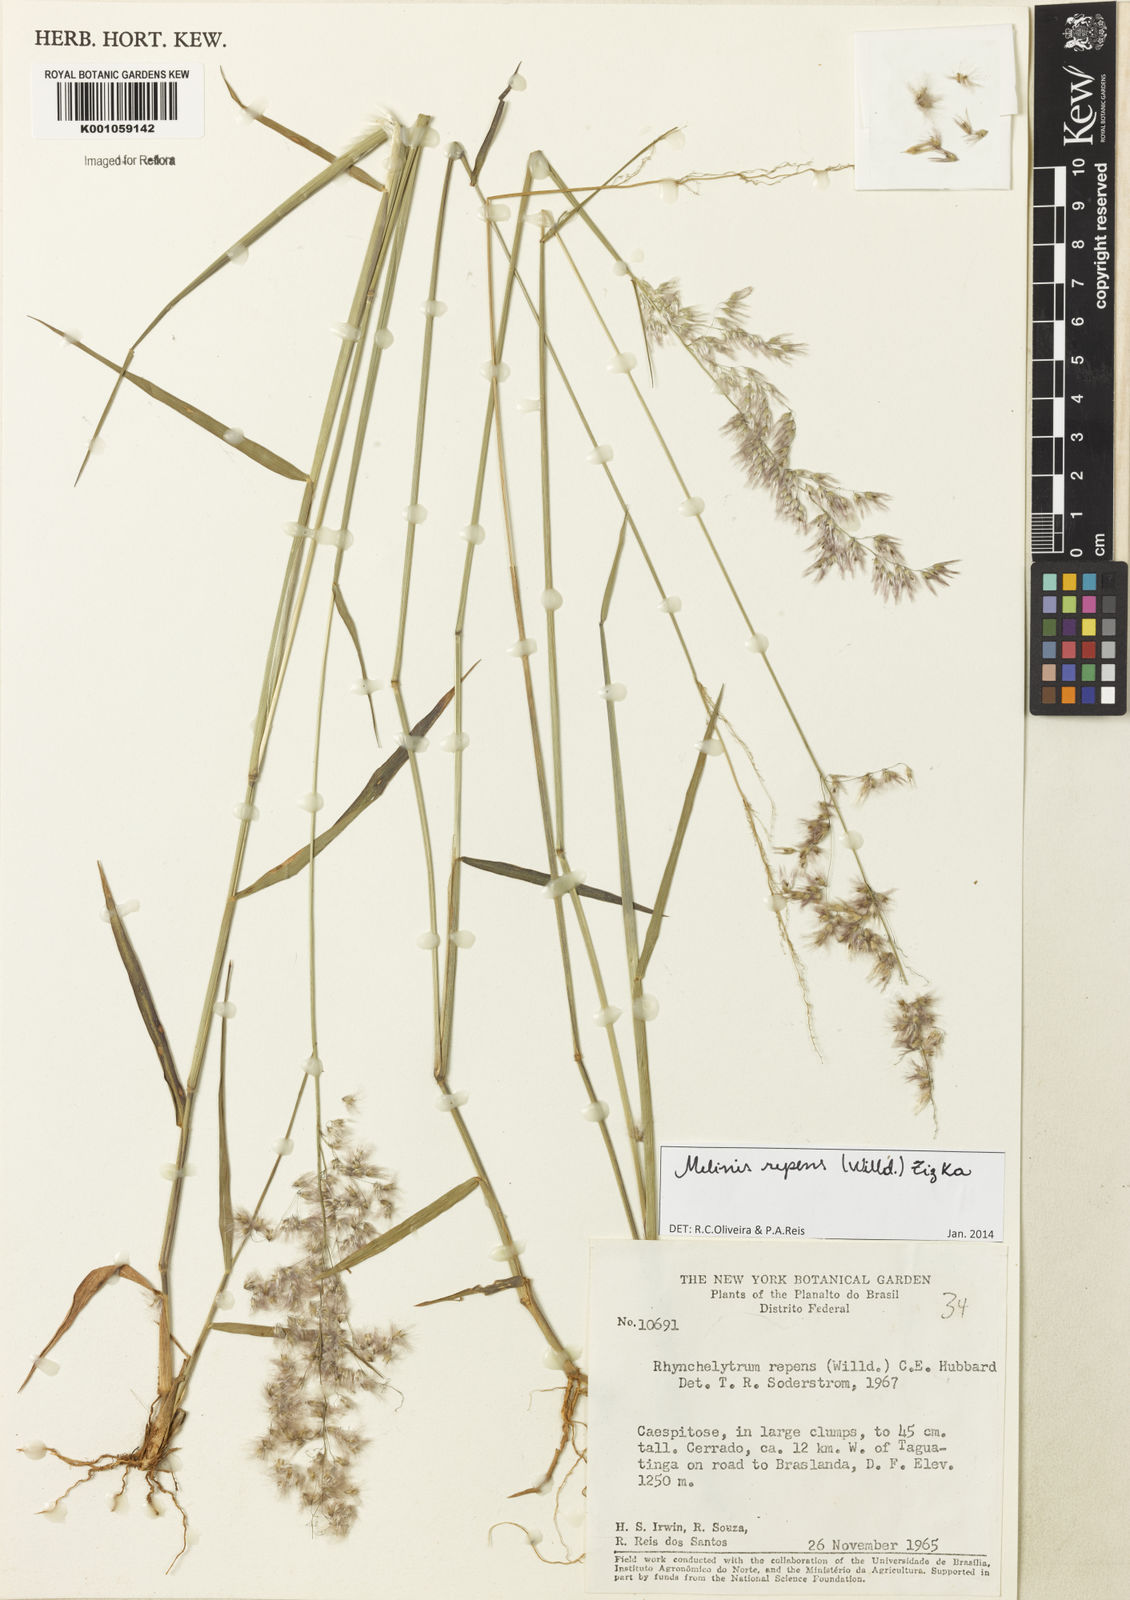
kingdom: Plantae
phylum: Tracheophyta
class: Liliopsida
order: Poales
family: Poaceae
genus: Melinis
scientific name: Melinis repens
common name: Rose natal grass
